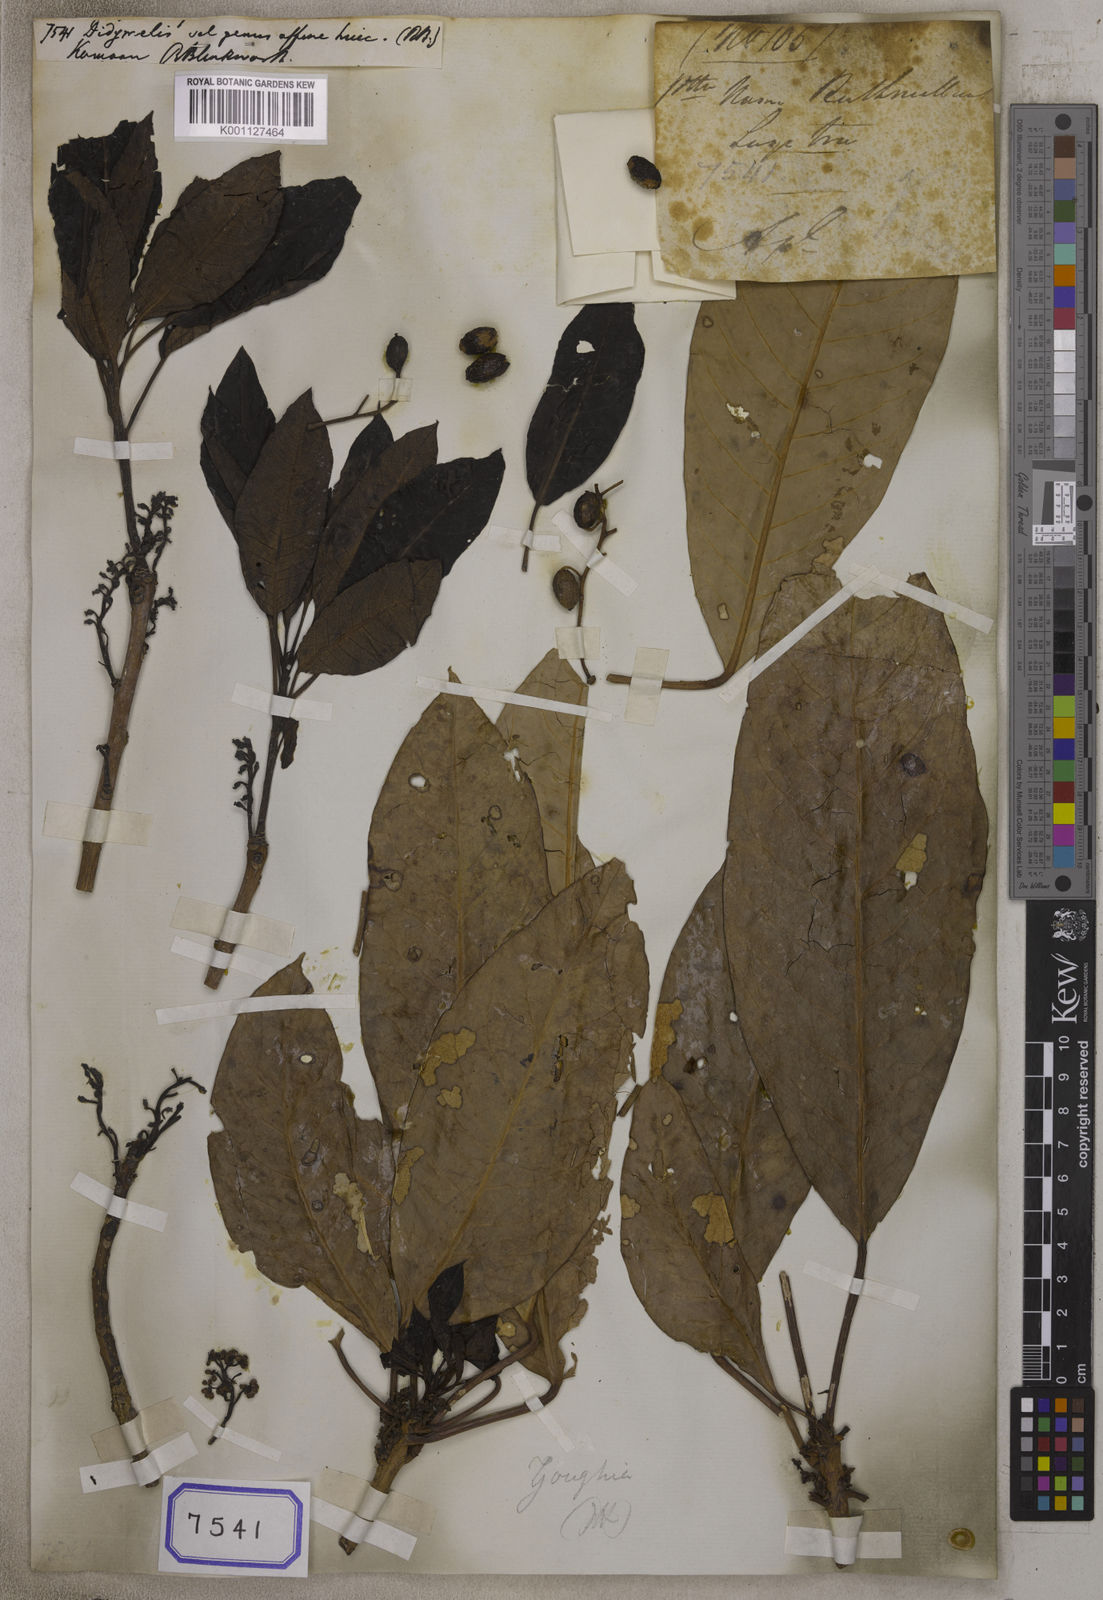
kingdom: Plantae
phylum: Tracheophyta
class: Magnoliopsida
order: Buxales
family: Didymelaceae
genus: Didymeles
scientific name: Didymeles
